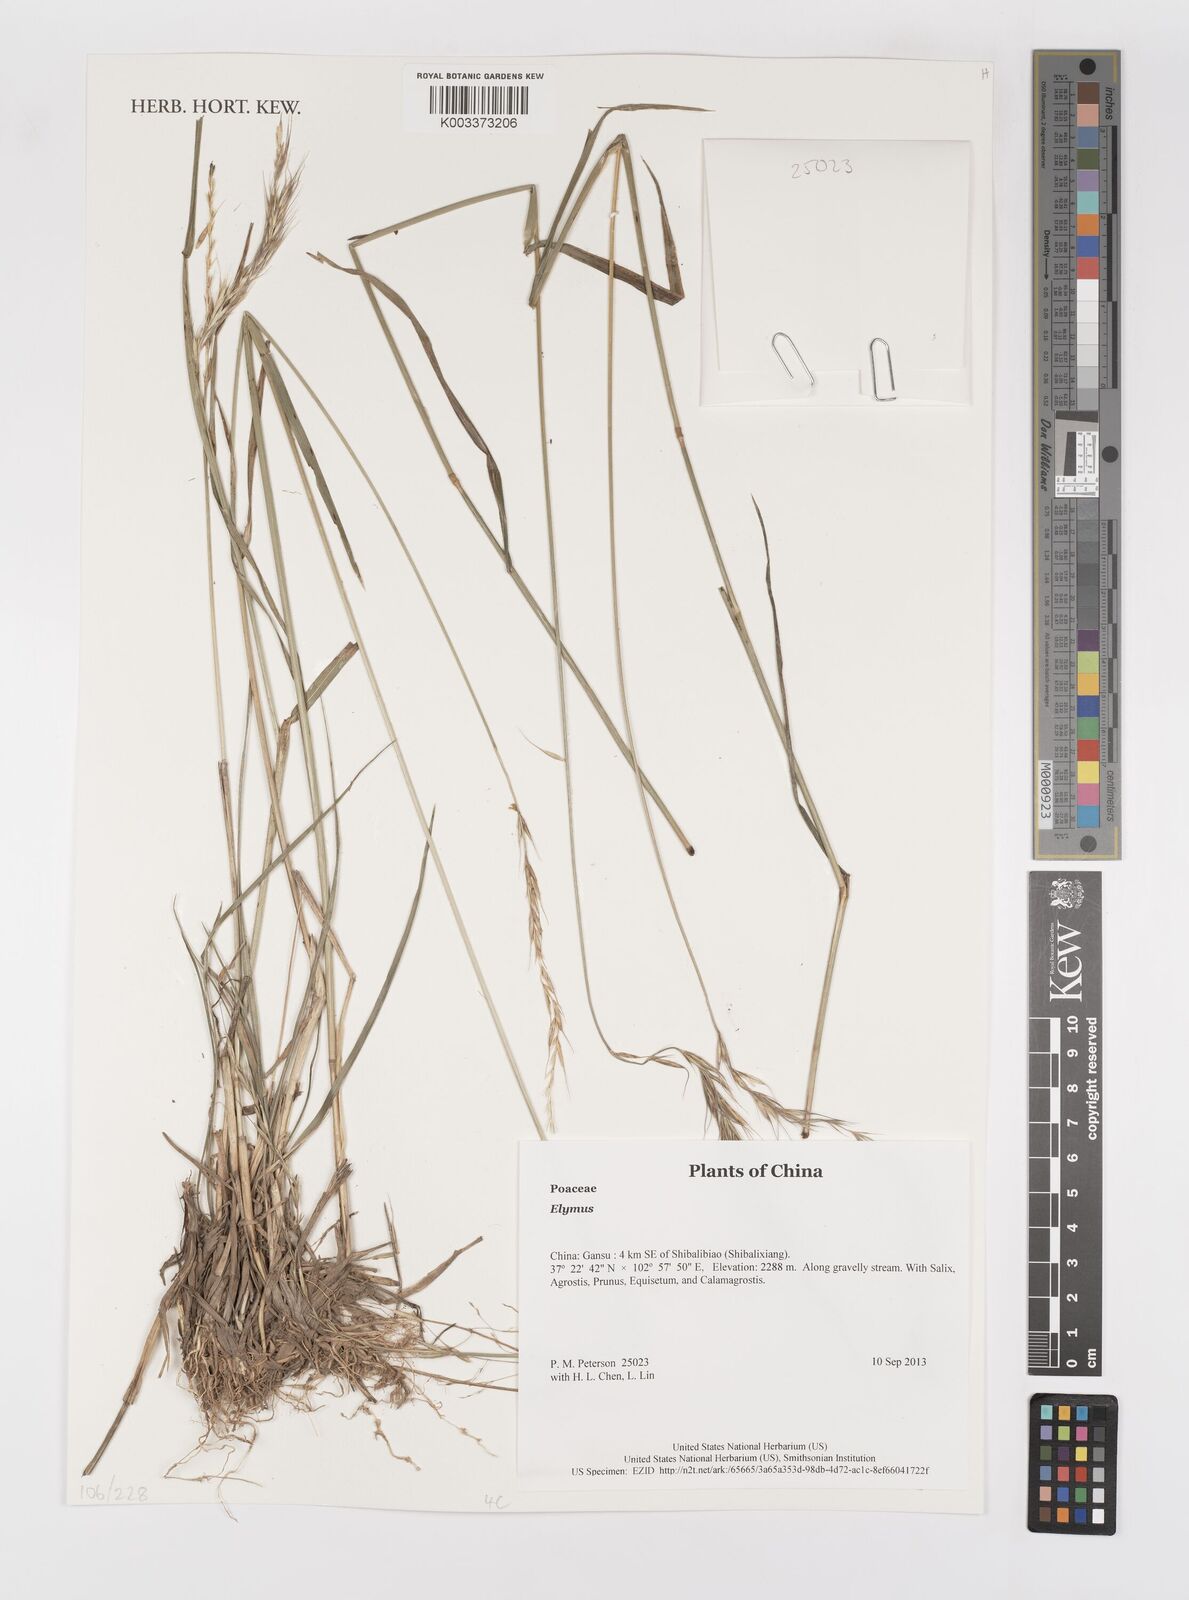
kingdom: Plantae
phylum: Tracheophyta
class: Liliopsida
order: Poales
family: Poaceae
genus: Elymus
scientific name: Elymus
